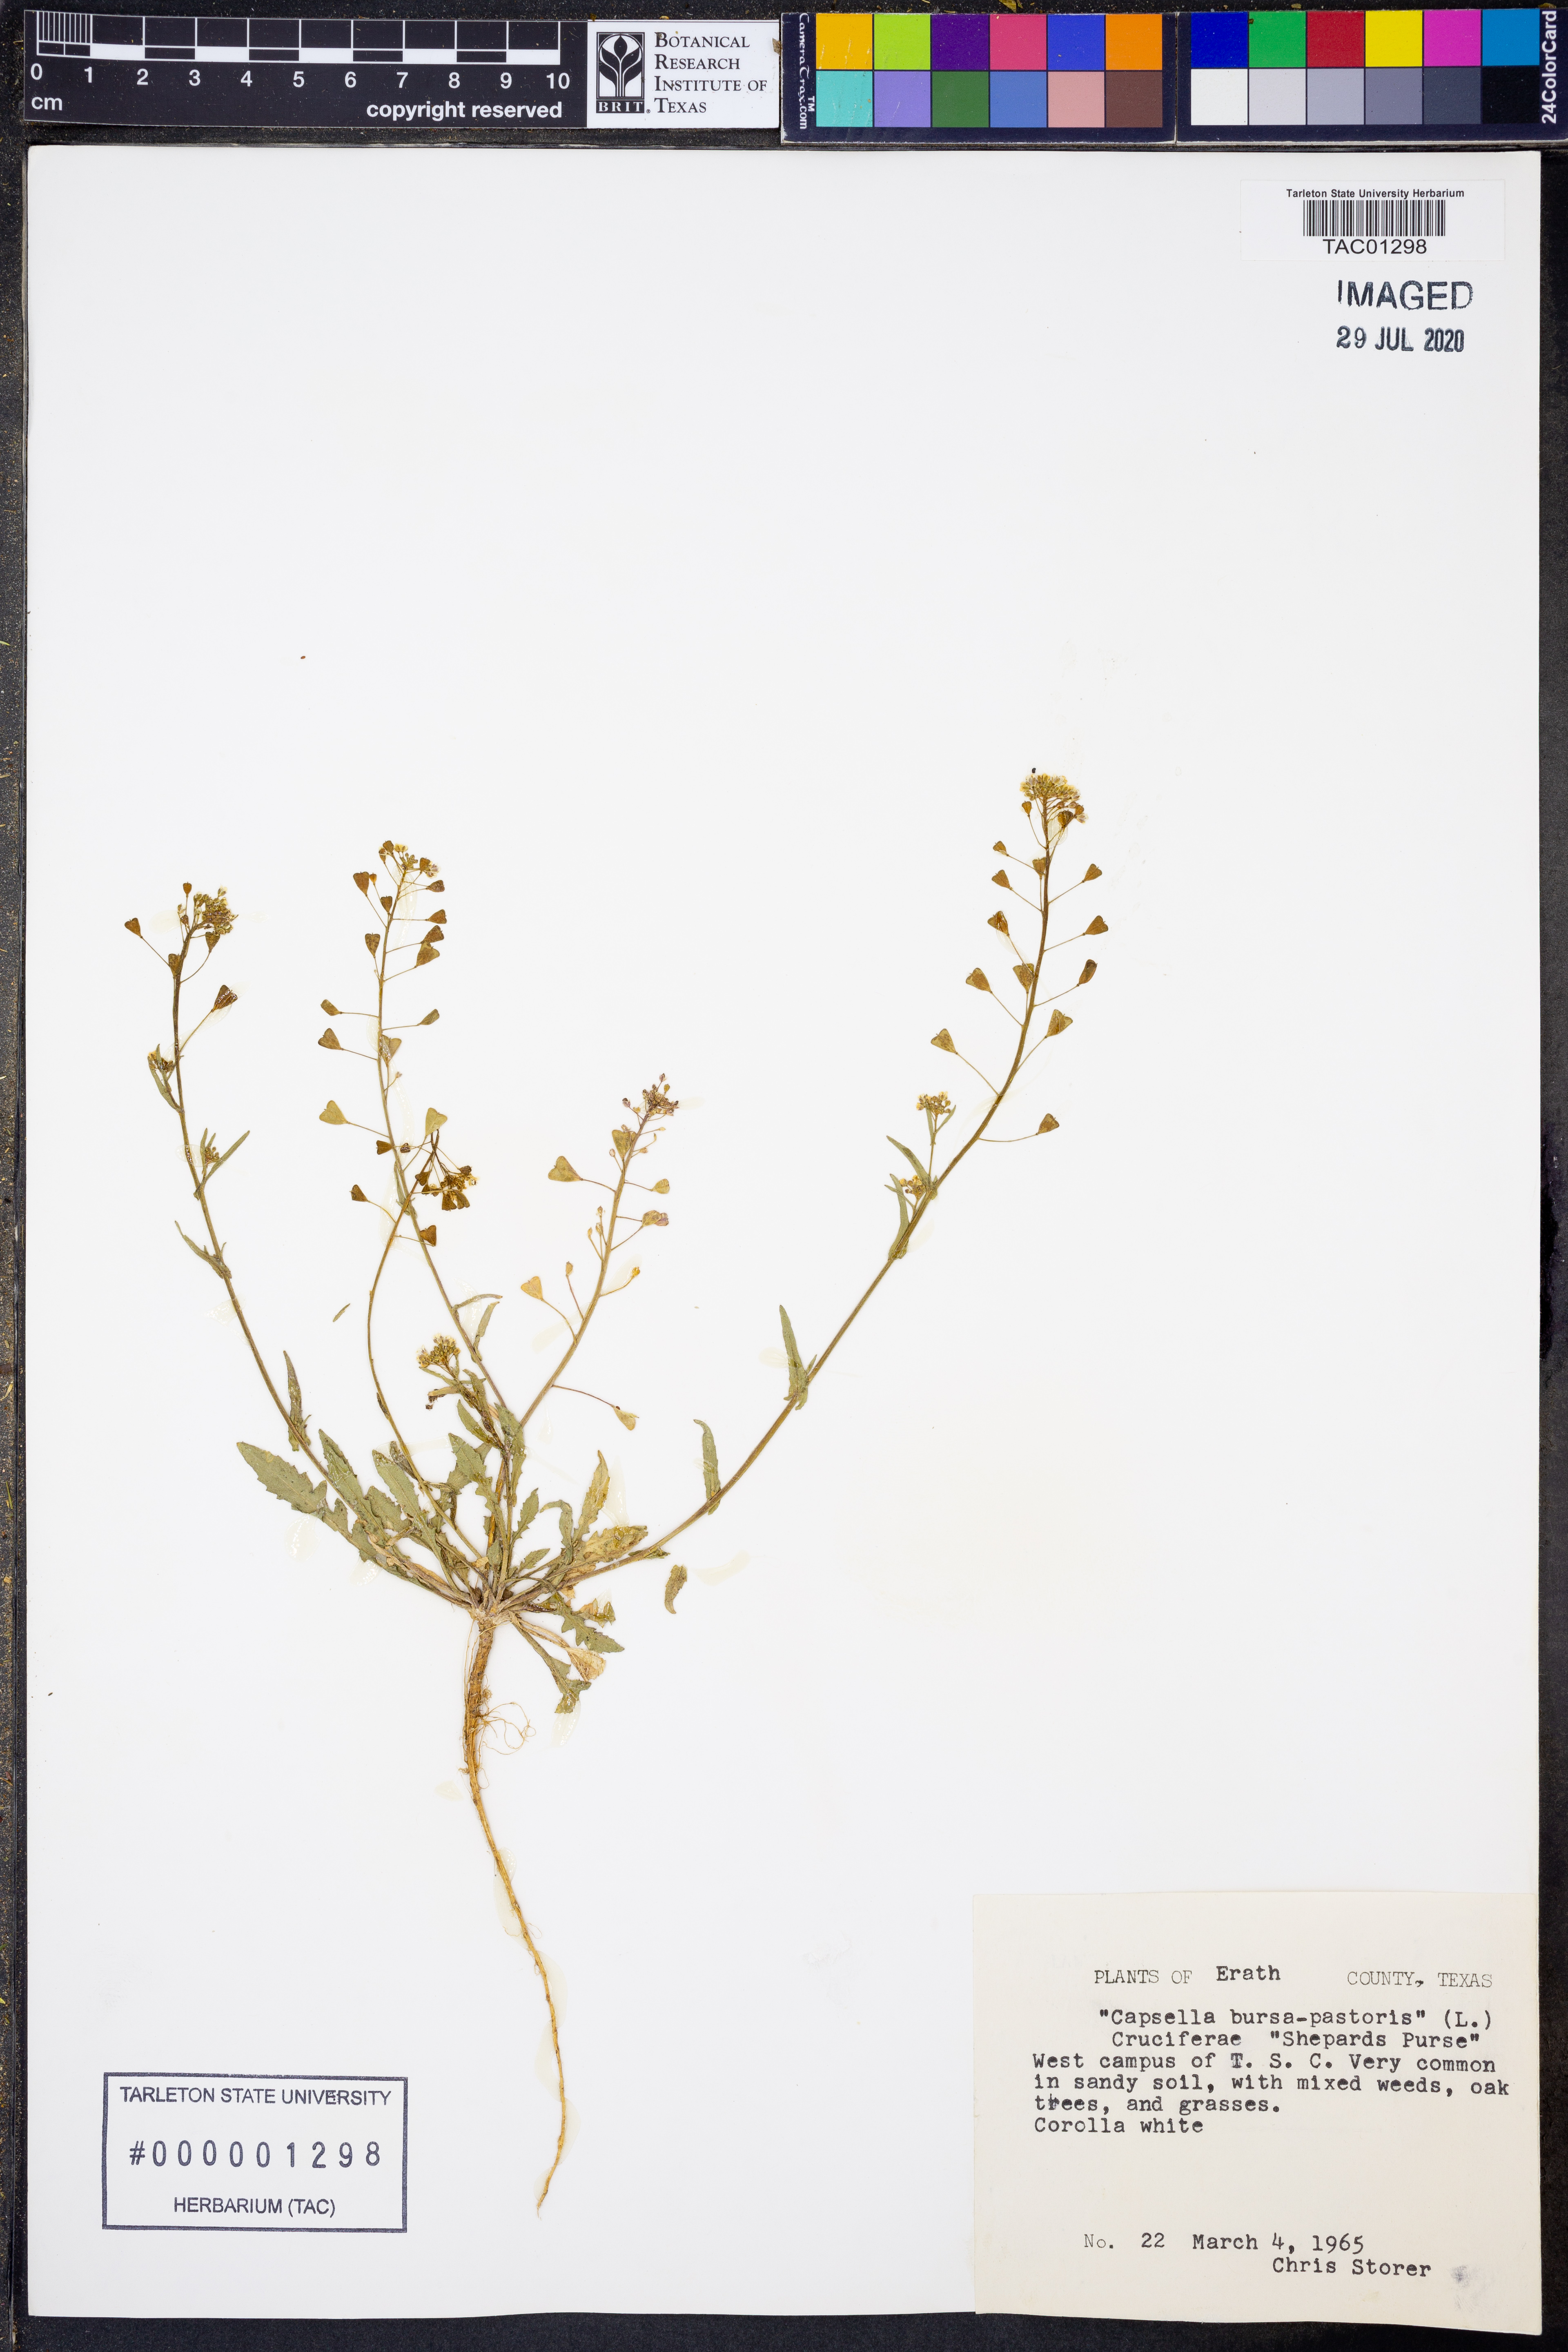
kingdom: Plantae
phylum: Tracheophyta
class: Magnoliopsida
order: Brassicales
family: Brassicaceae
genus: Capsella
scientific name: Capsella bursa-pastoris
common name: Shepherd's purse
